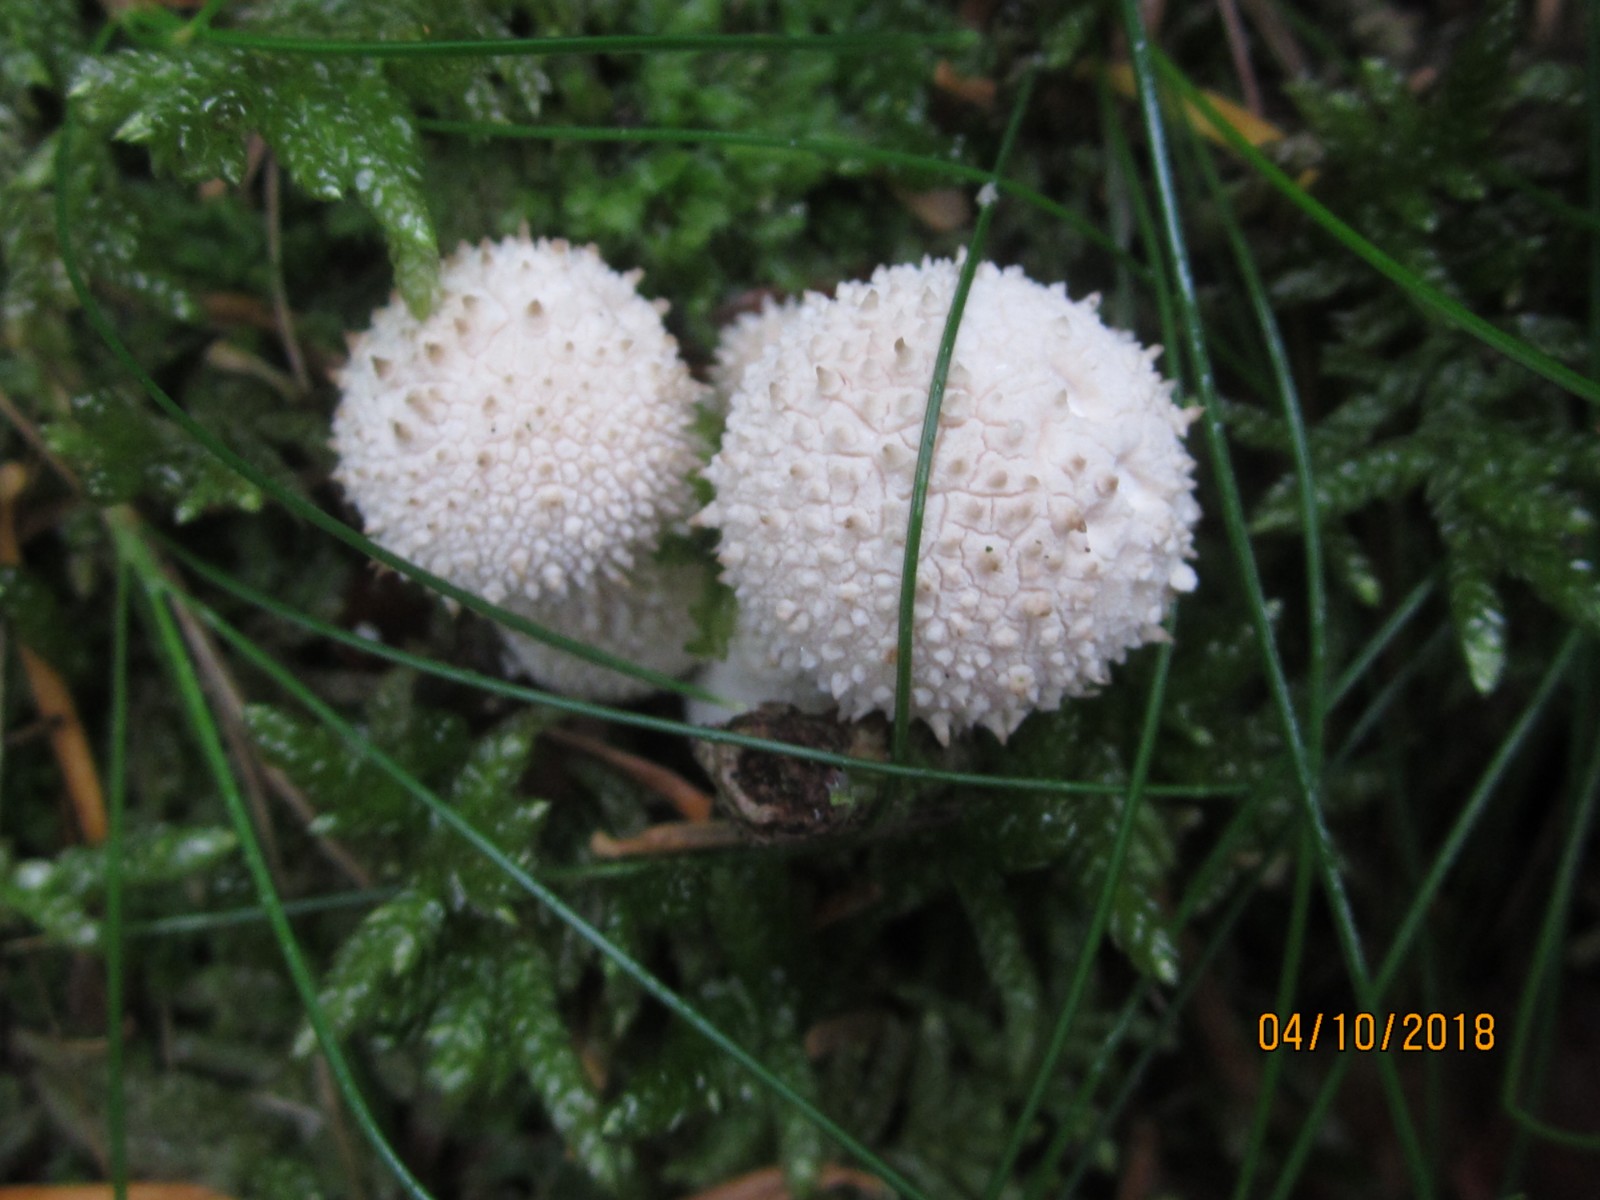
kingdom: Fungi
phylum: Basidiomycota
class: Agaricomycetes
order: Agaricales
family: Lycoperdaceae
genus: Lycoperdon
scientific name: Lycoperdon perlatum
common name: krystal-støvbold
